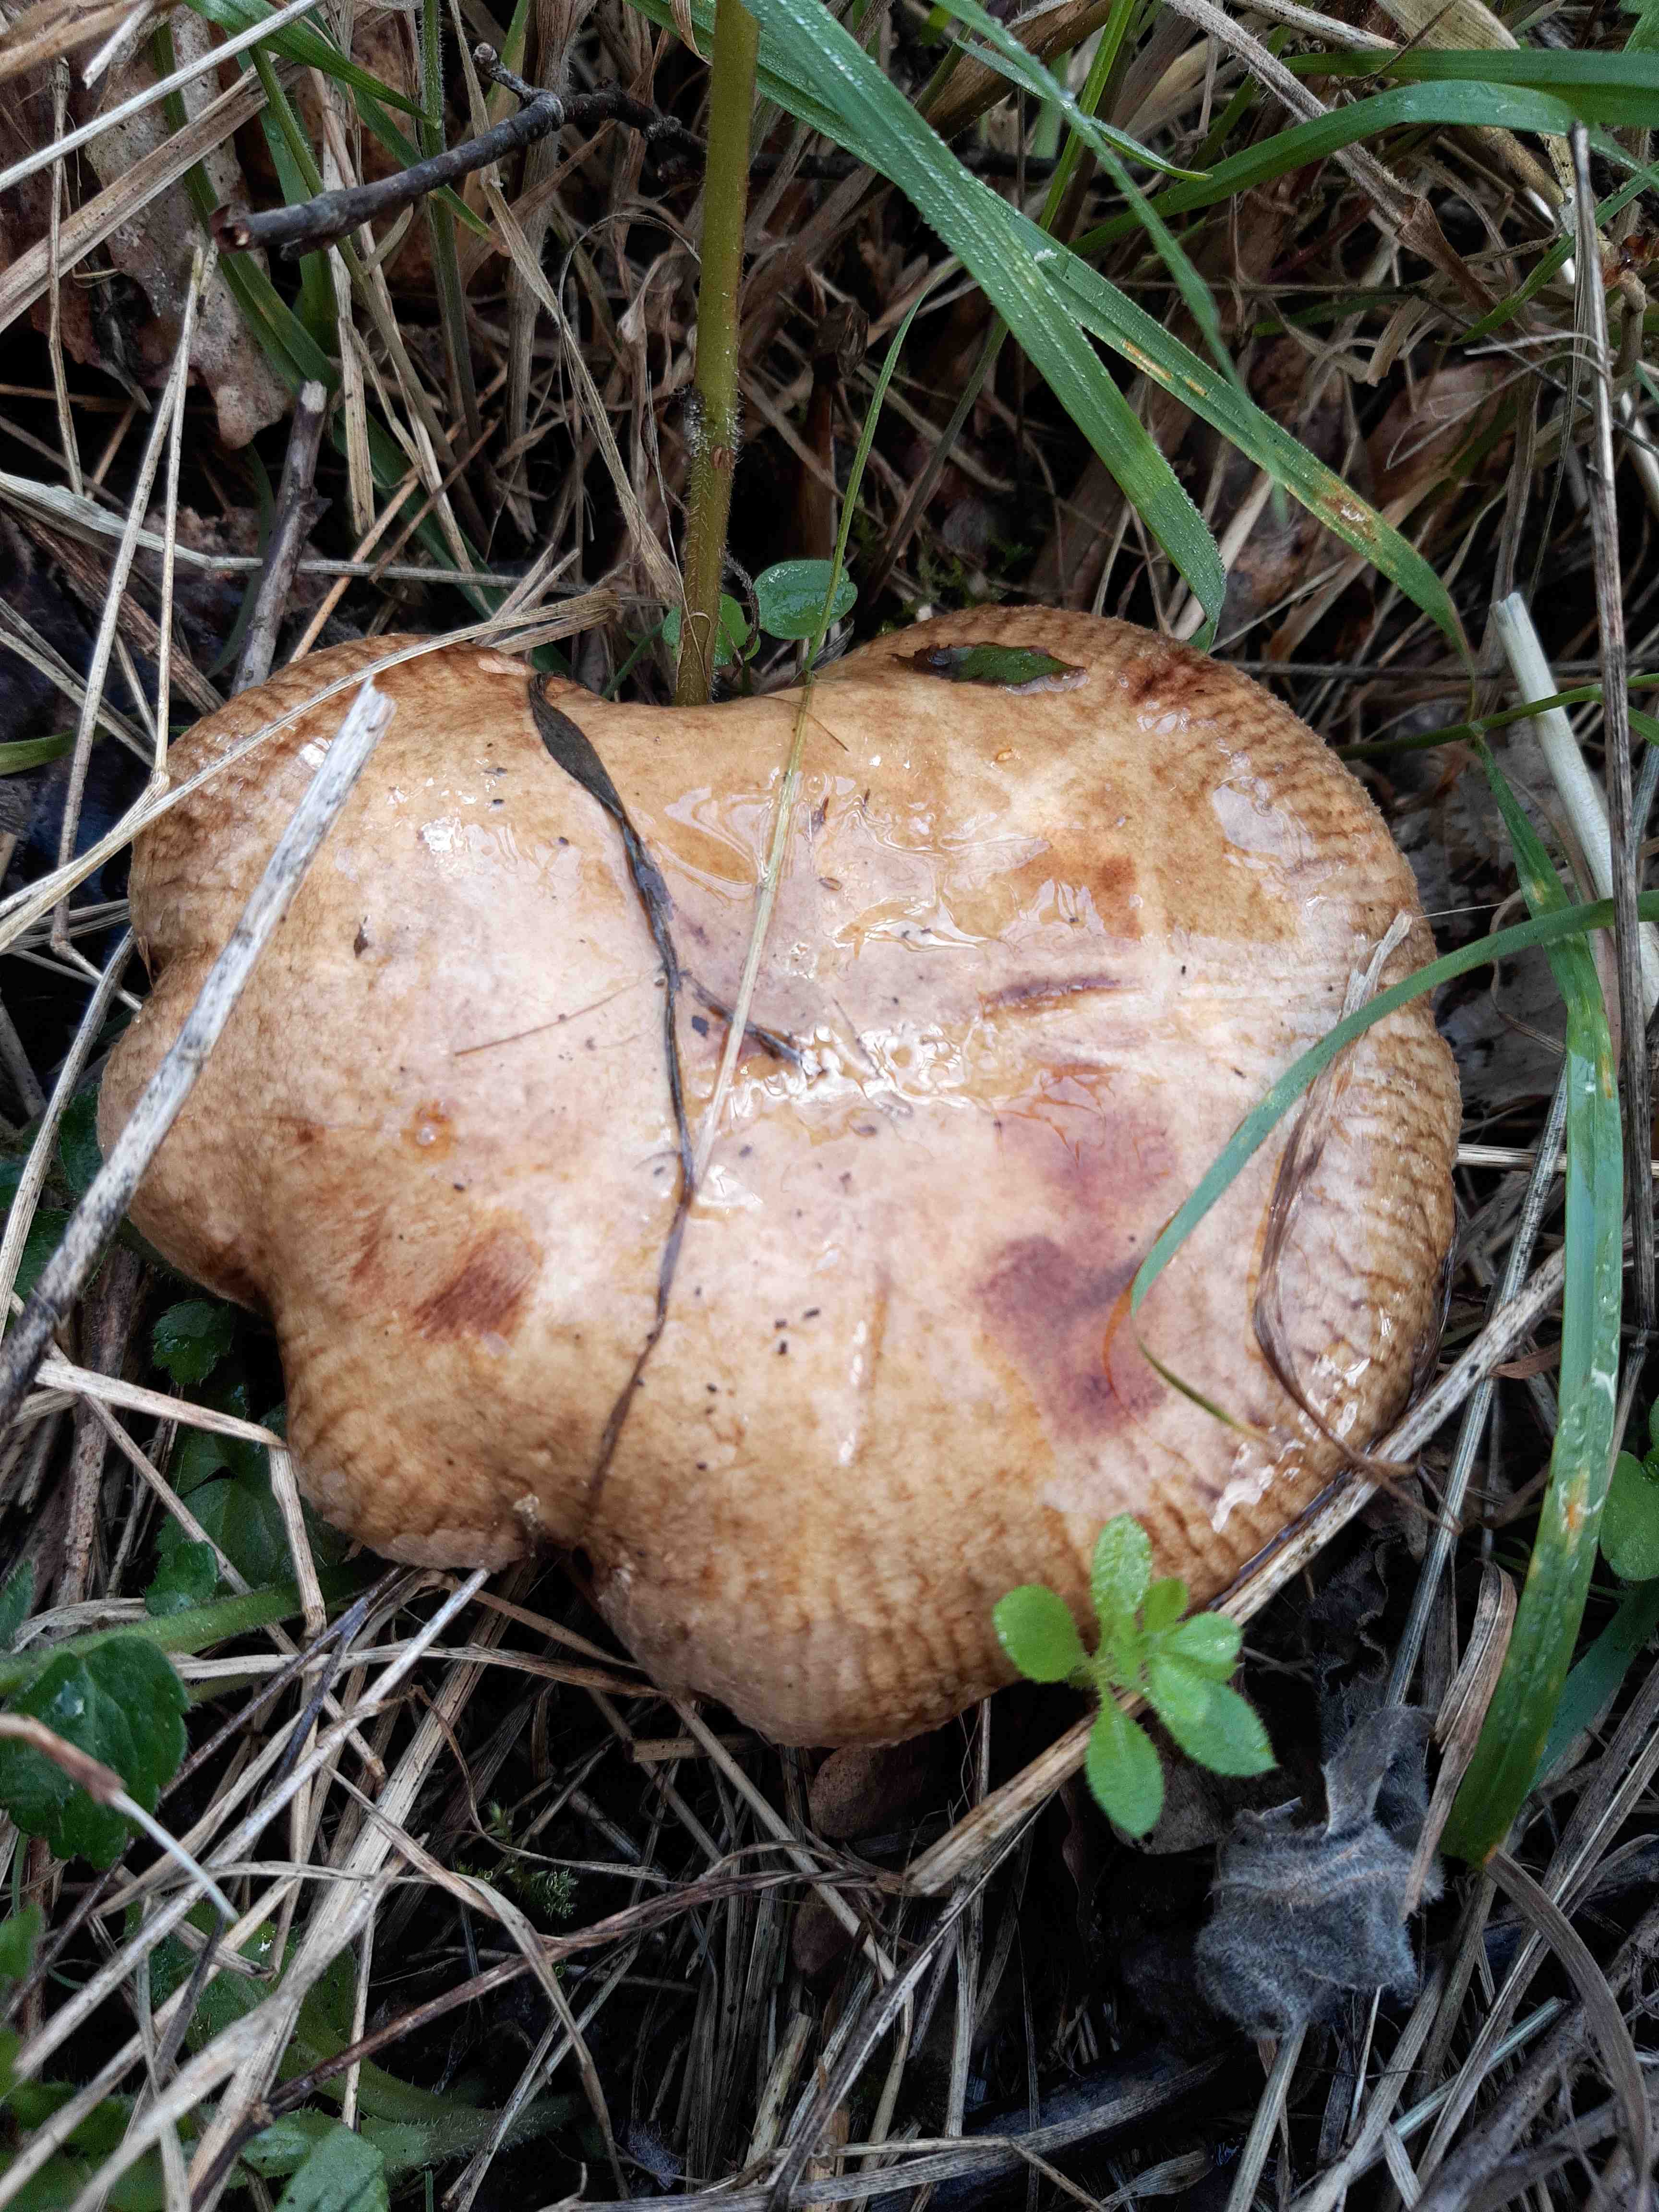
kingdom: Fungi
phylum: Basidiomycota
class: Agaricomycetes
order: Boletales
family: Paxillaceae
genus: Paxillus
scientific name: Paxillus
